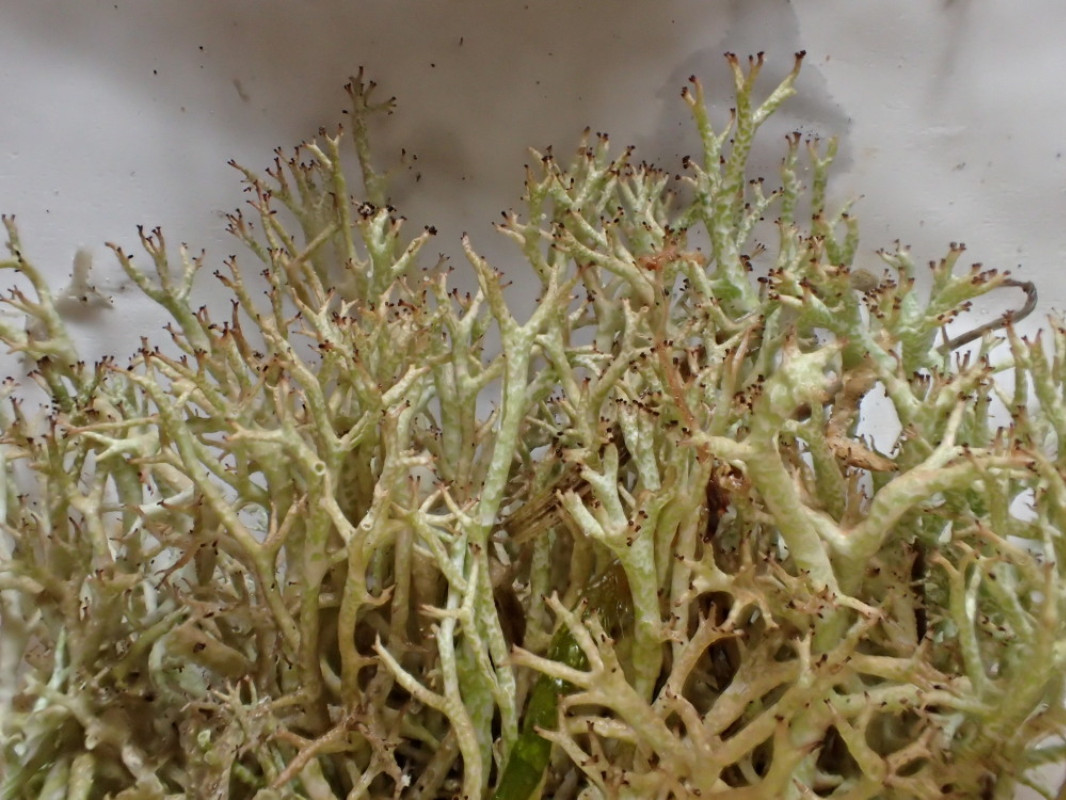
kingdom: Fungi
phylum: Ascomycota
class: Lecanoromycetes
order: Lecanorales
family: Cladoniaceae
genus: Cladonia
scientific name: Cladonia rangiformis
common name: spættet bægerlav
